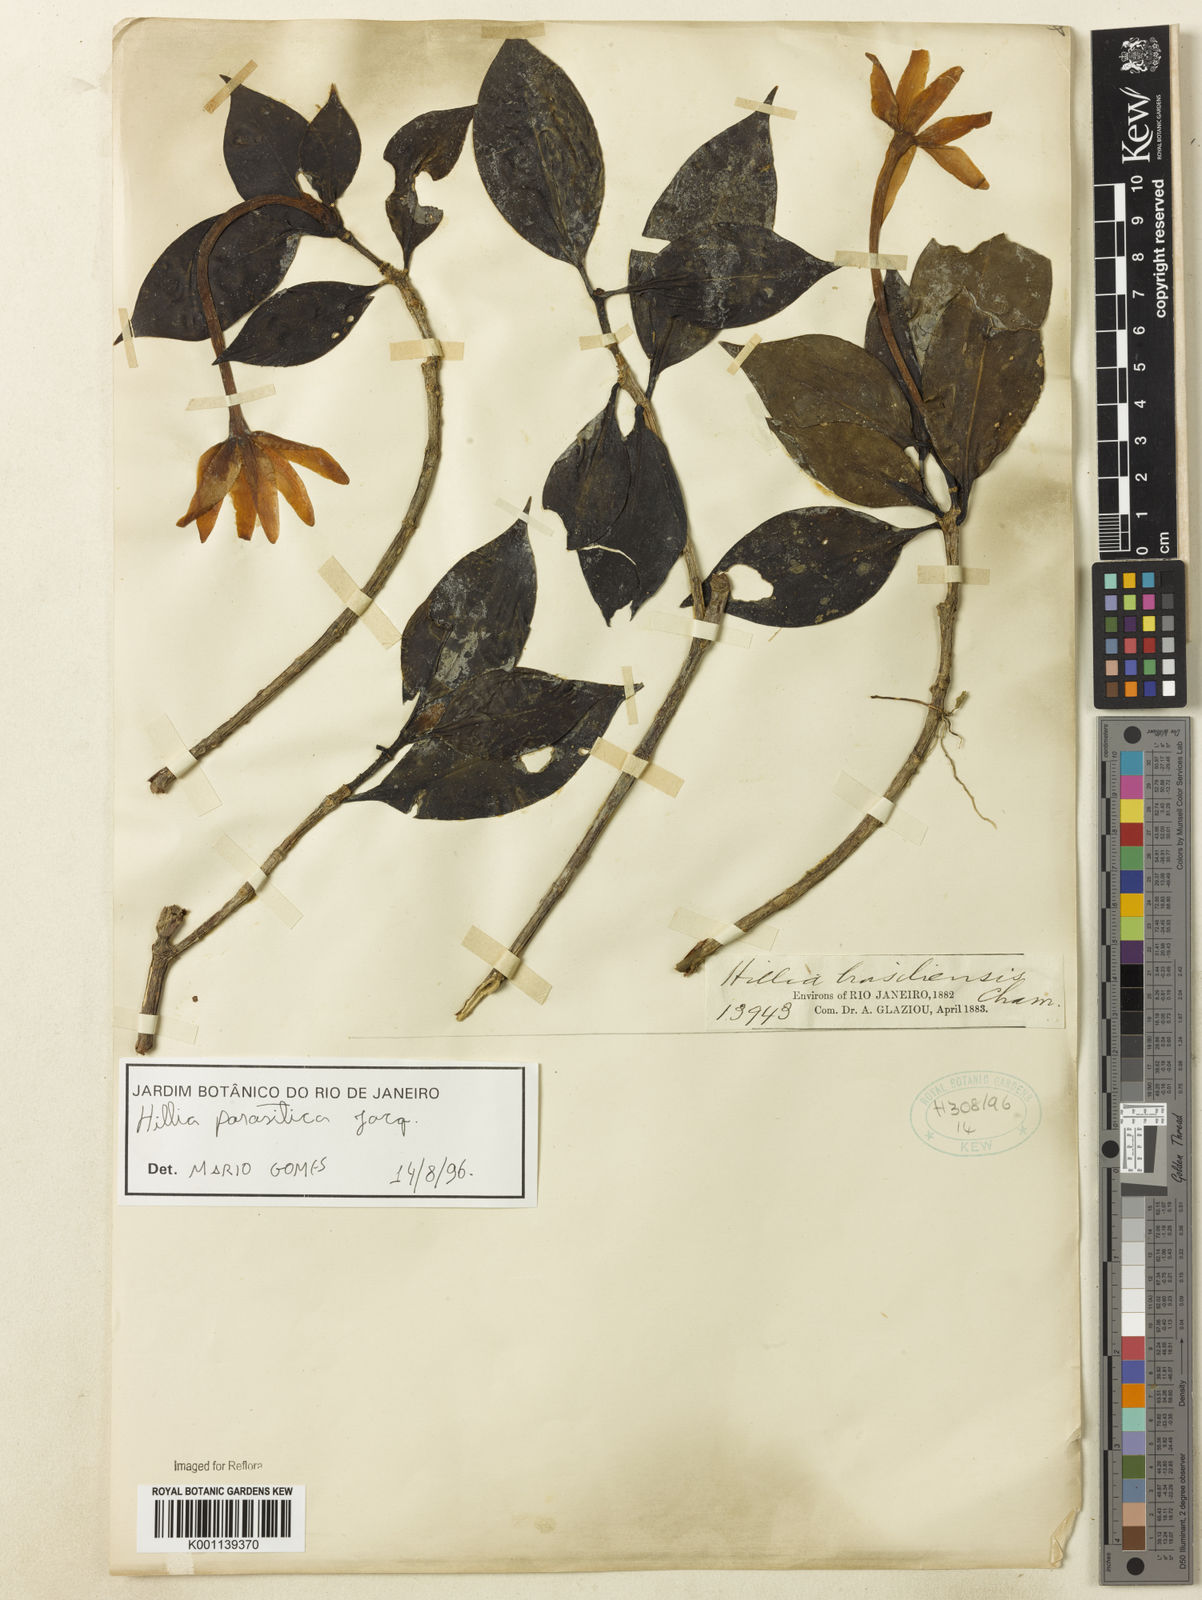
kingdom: Plantae
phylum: Tracheophyta
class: Magnoliopsida
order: Gentianales
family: Rubiaceae
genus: Hillia
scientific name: Hillia parasitica
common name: Morning star
